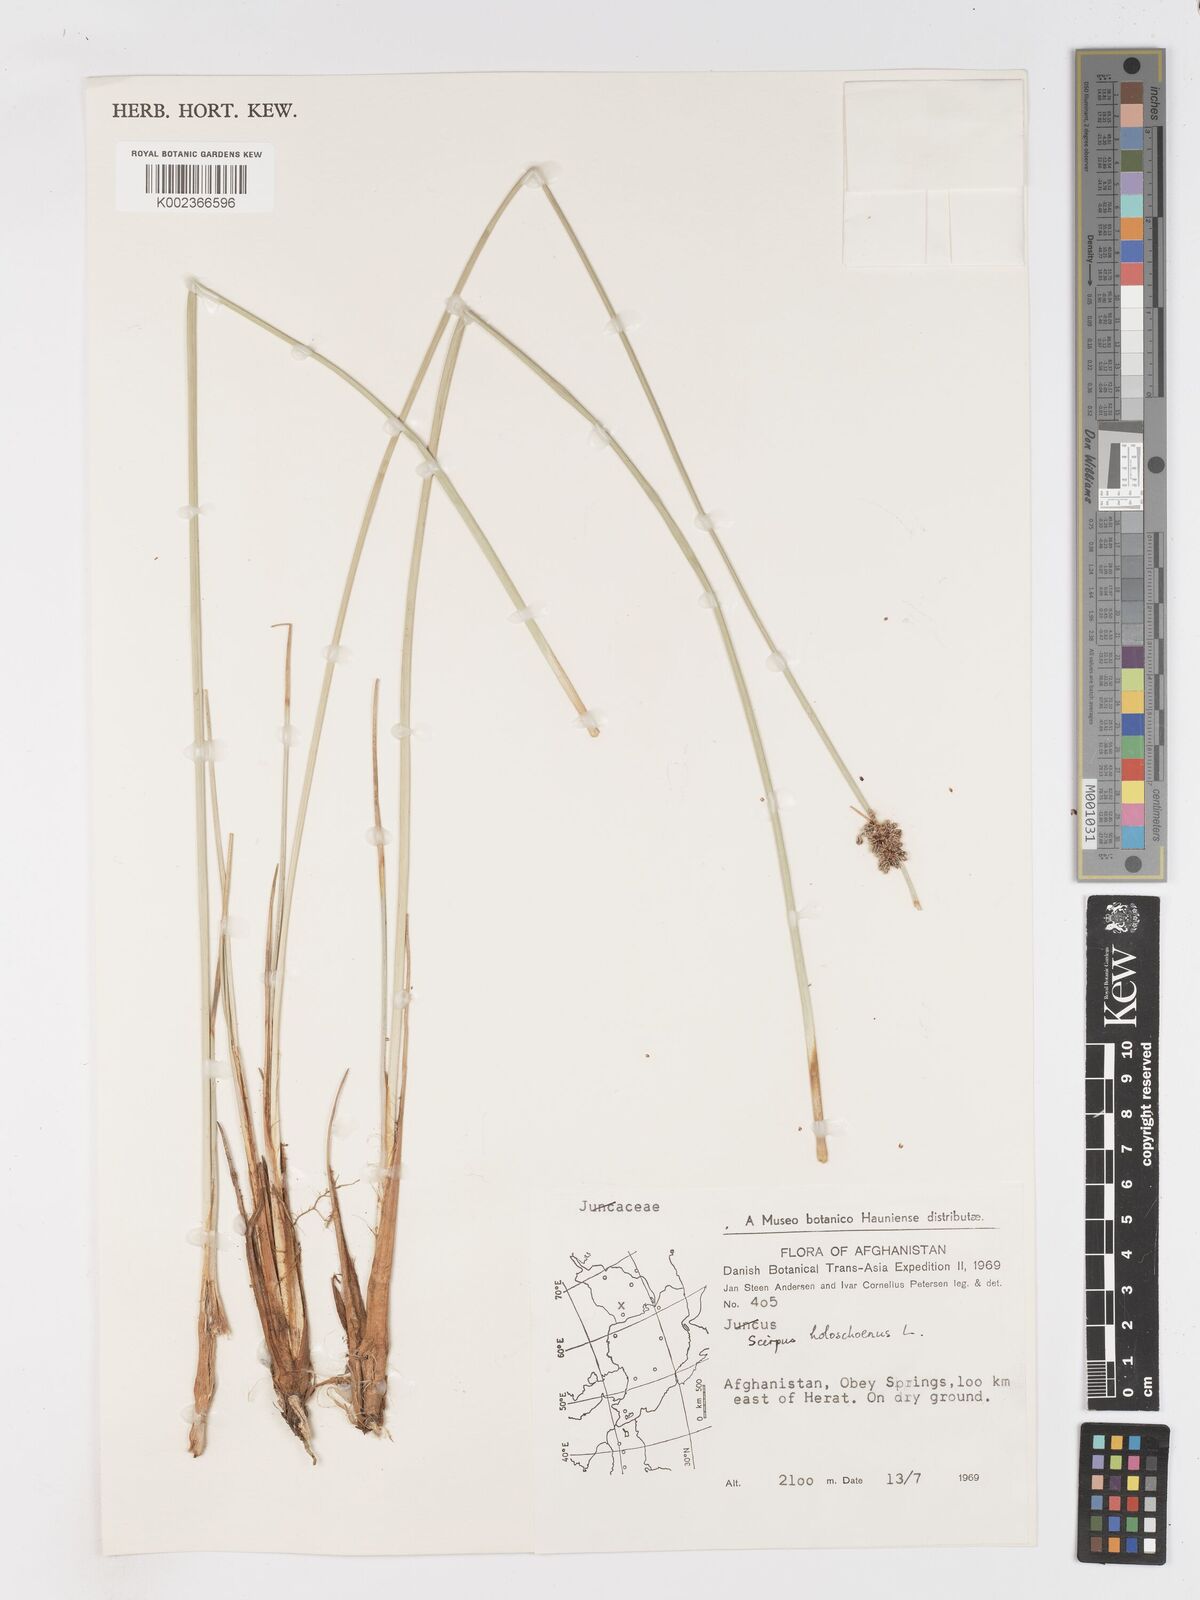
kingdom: Plantae
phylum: Tracheophyta
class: Liliopsida
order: Poales
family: Cyperaceae
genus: Scirpoides
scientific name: Scirpoides holoschoenus
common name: Round-headed club-rush
